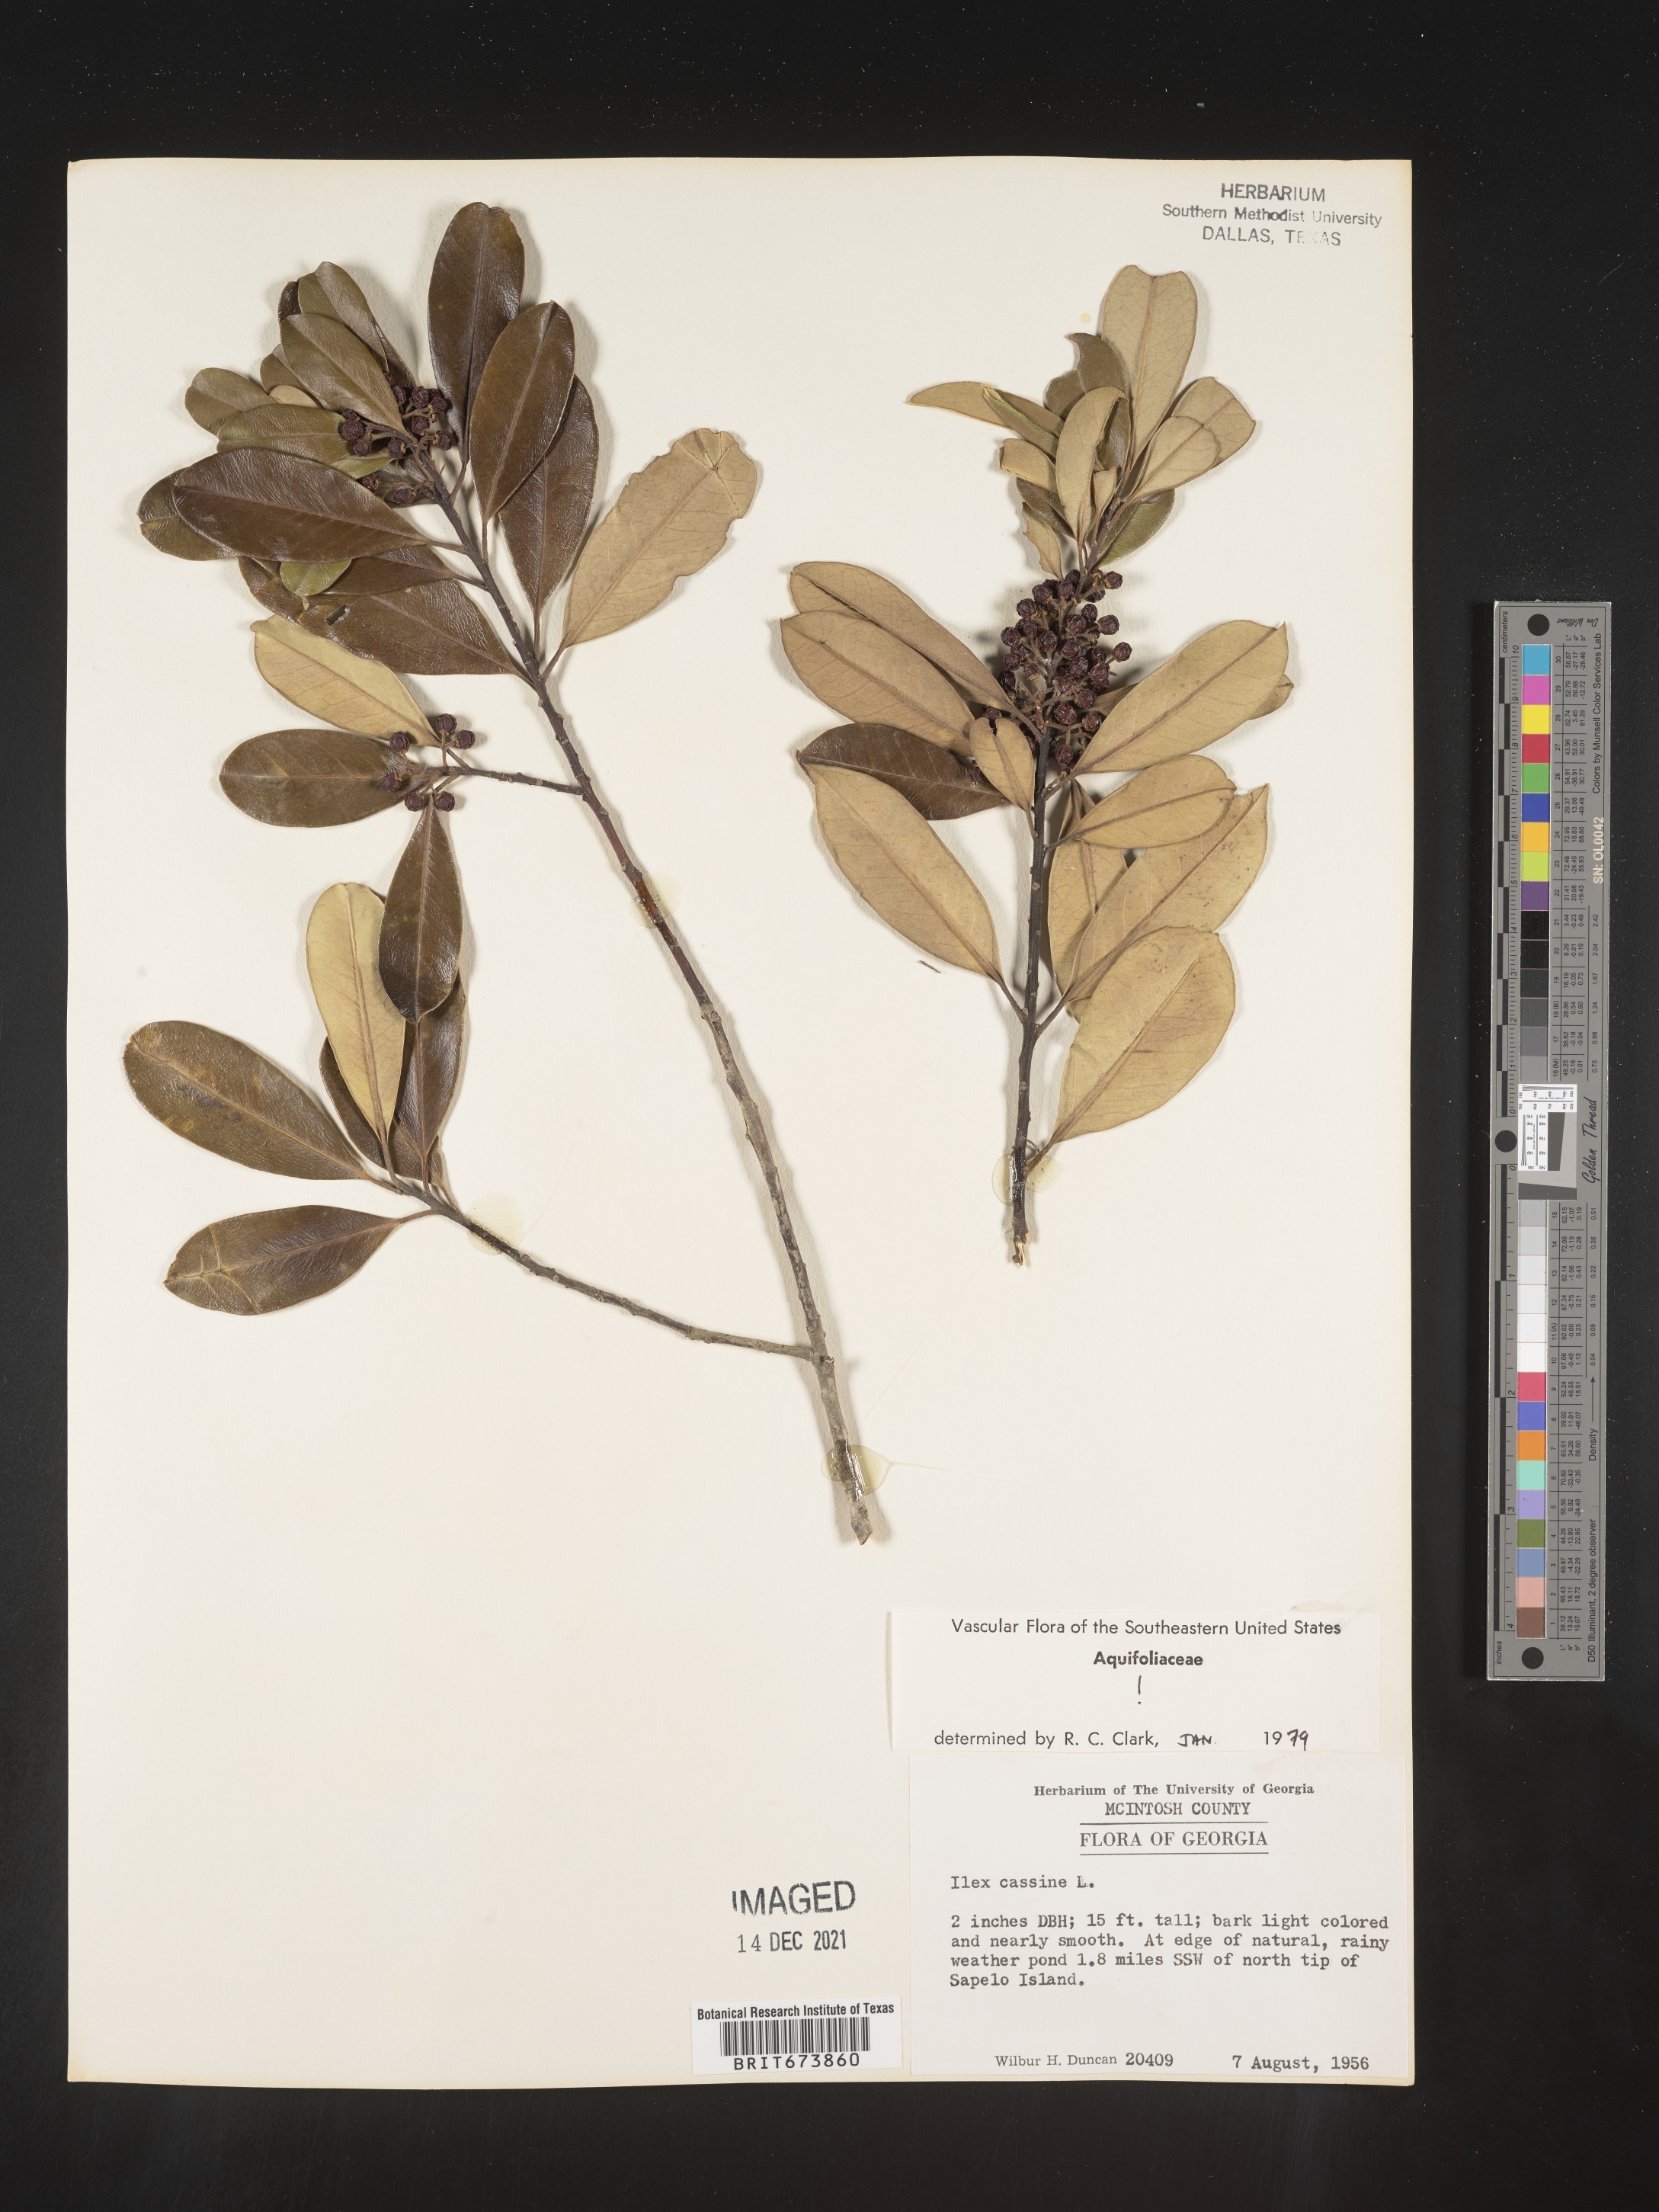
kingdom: Plantae
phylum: Tracheophyta
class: Magnoliopsida
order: Aquifoliales
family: Aquifoliaceae
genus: Ilex
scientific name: Ilex cassine
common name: Dahoon
